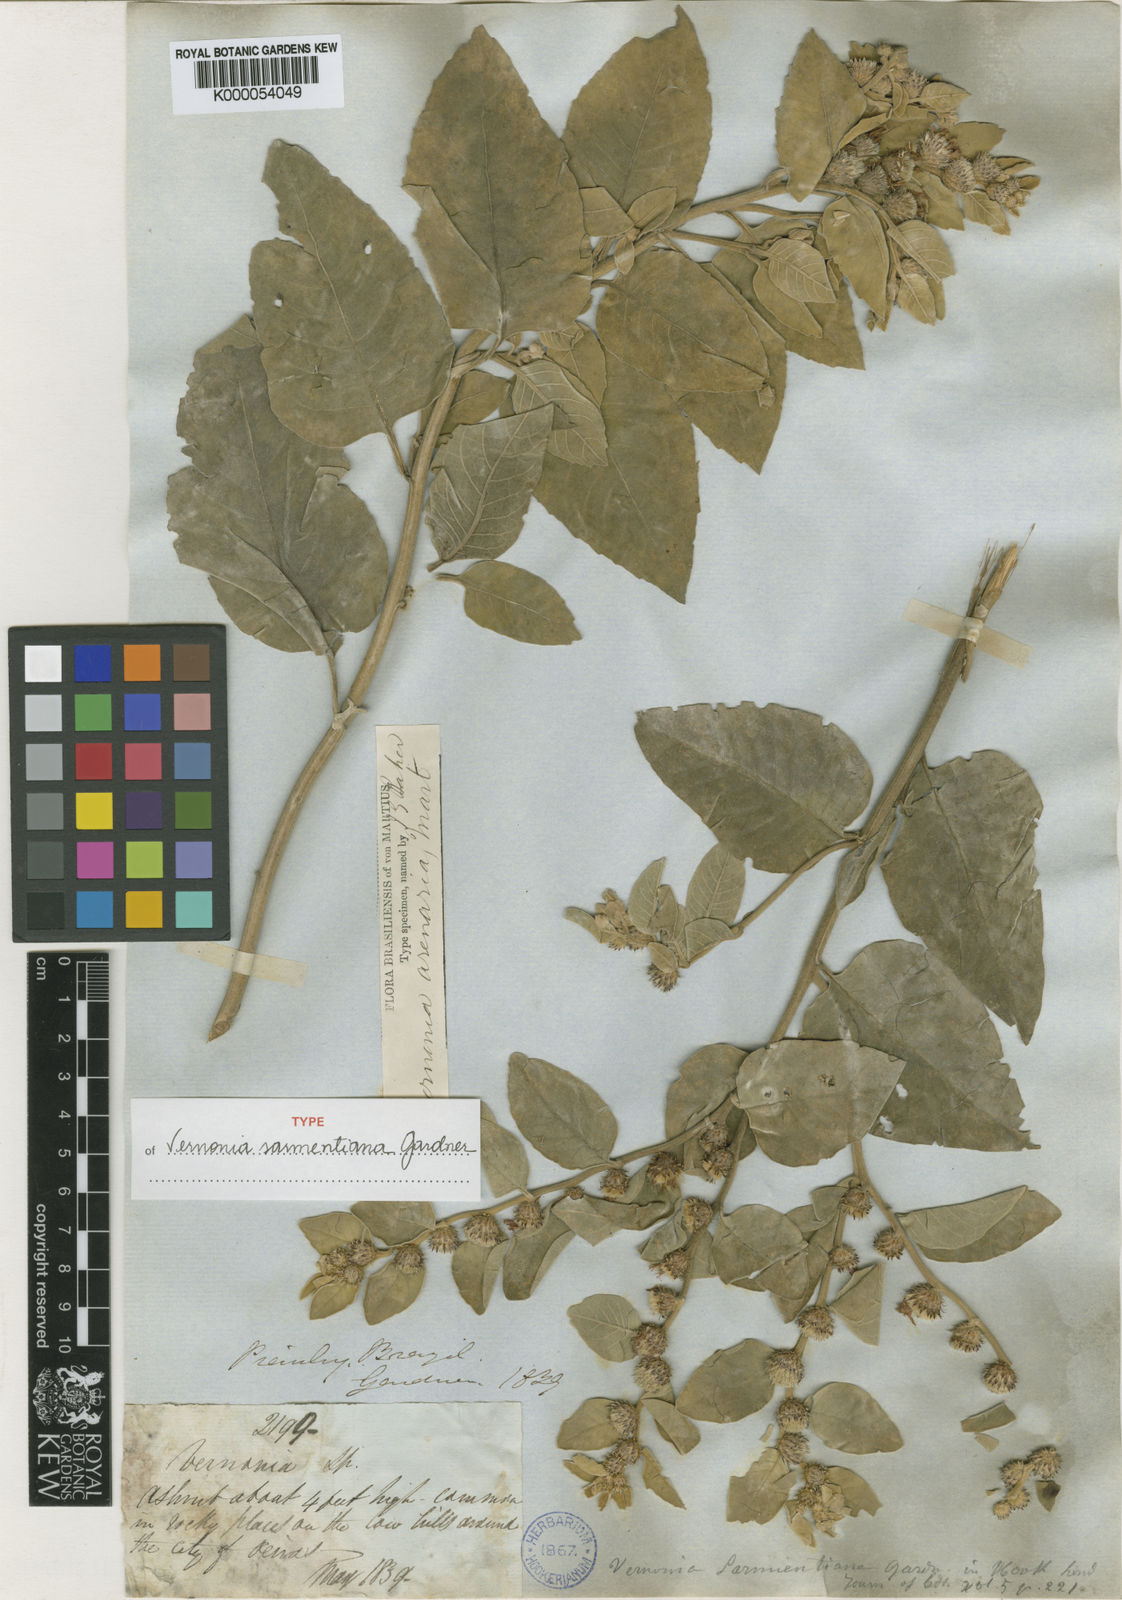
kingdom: Plantae
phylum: Tracheophyta
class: Magnoliopsida
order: Asterales
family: Asteraceae
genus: Lepidaploa
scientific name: Lepidaploa arenaria
